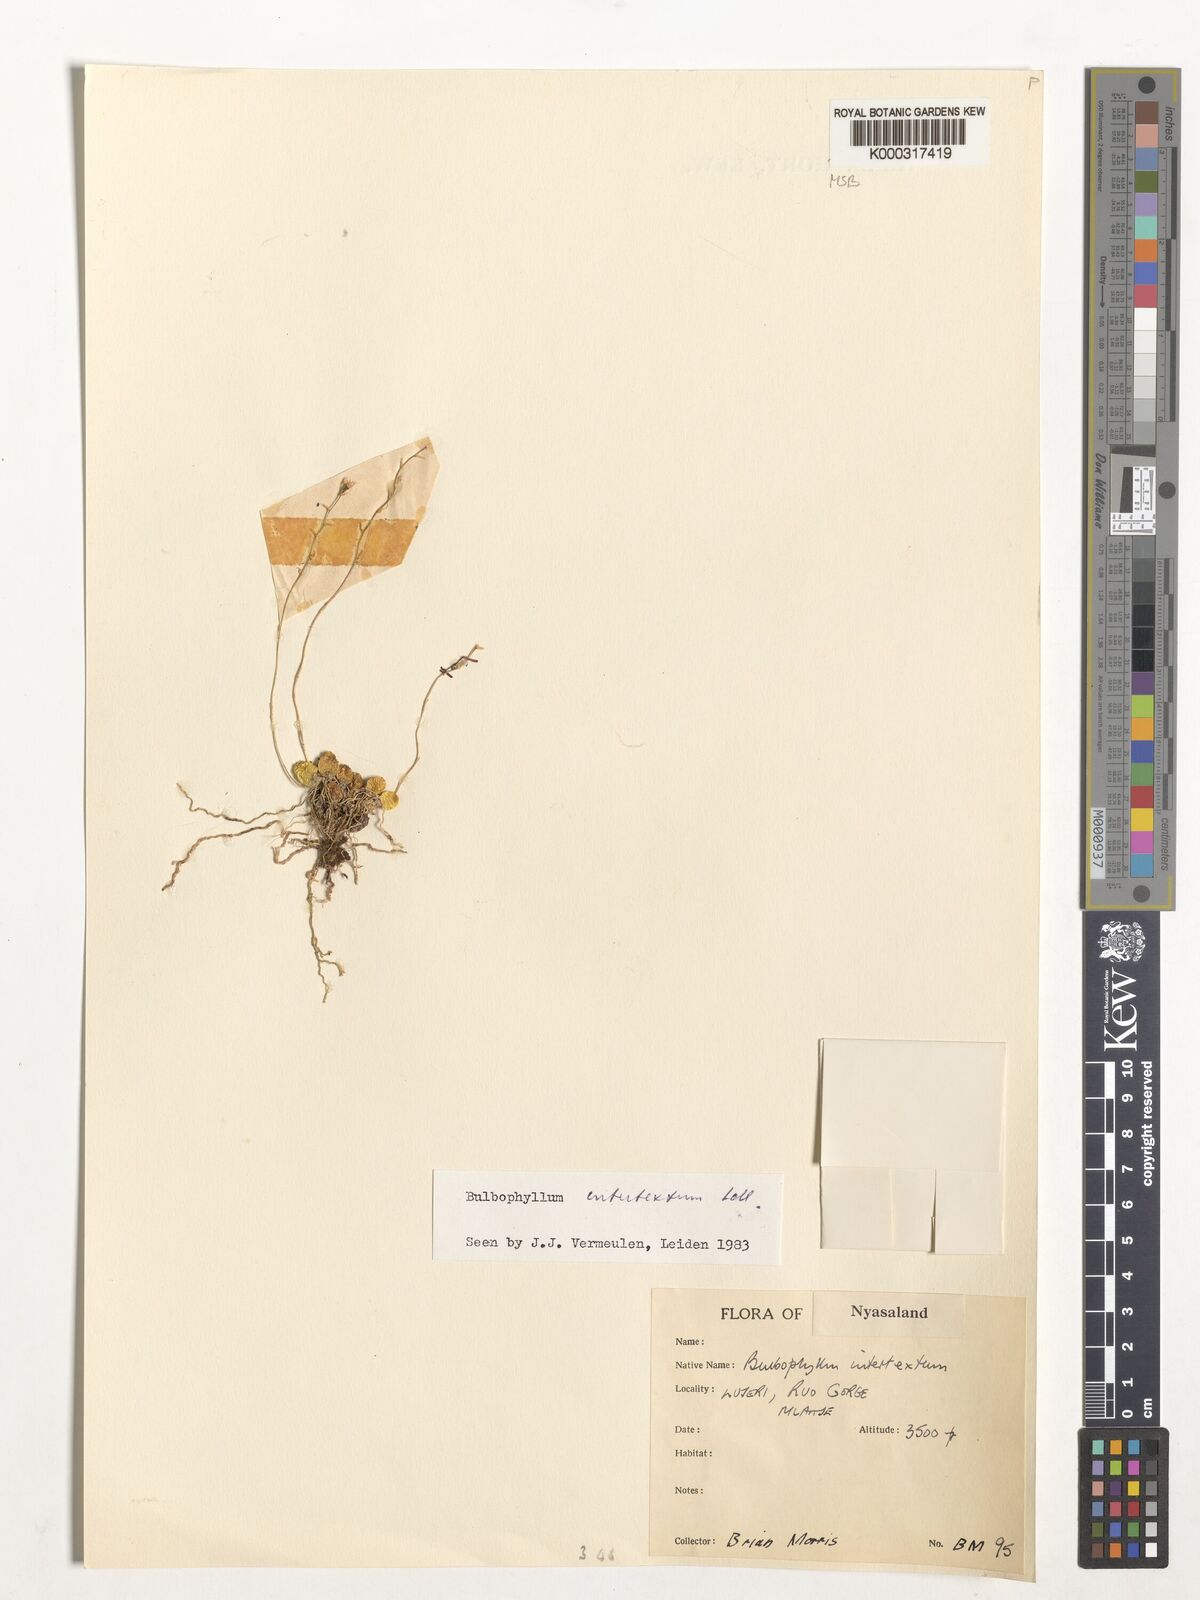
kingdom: Plantae
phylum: Tracheophyta
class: Liliopsida
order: Asparagales
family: Orchidaceae
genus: Bulbophyllum
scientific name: Bulbophyllum intertextum
